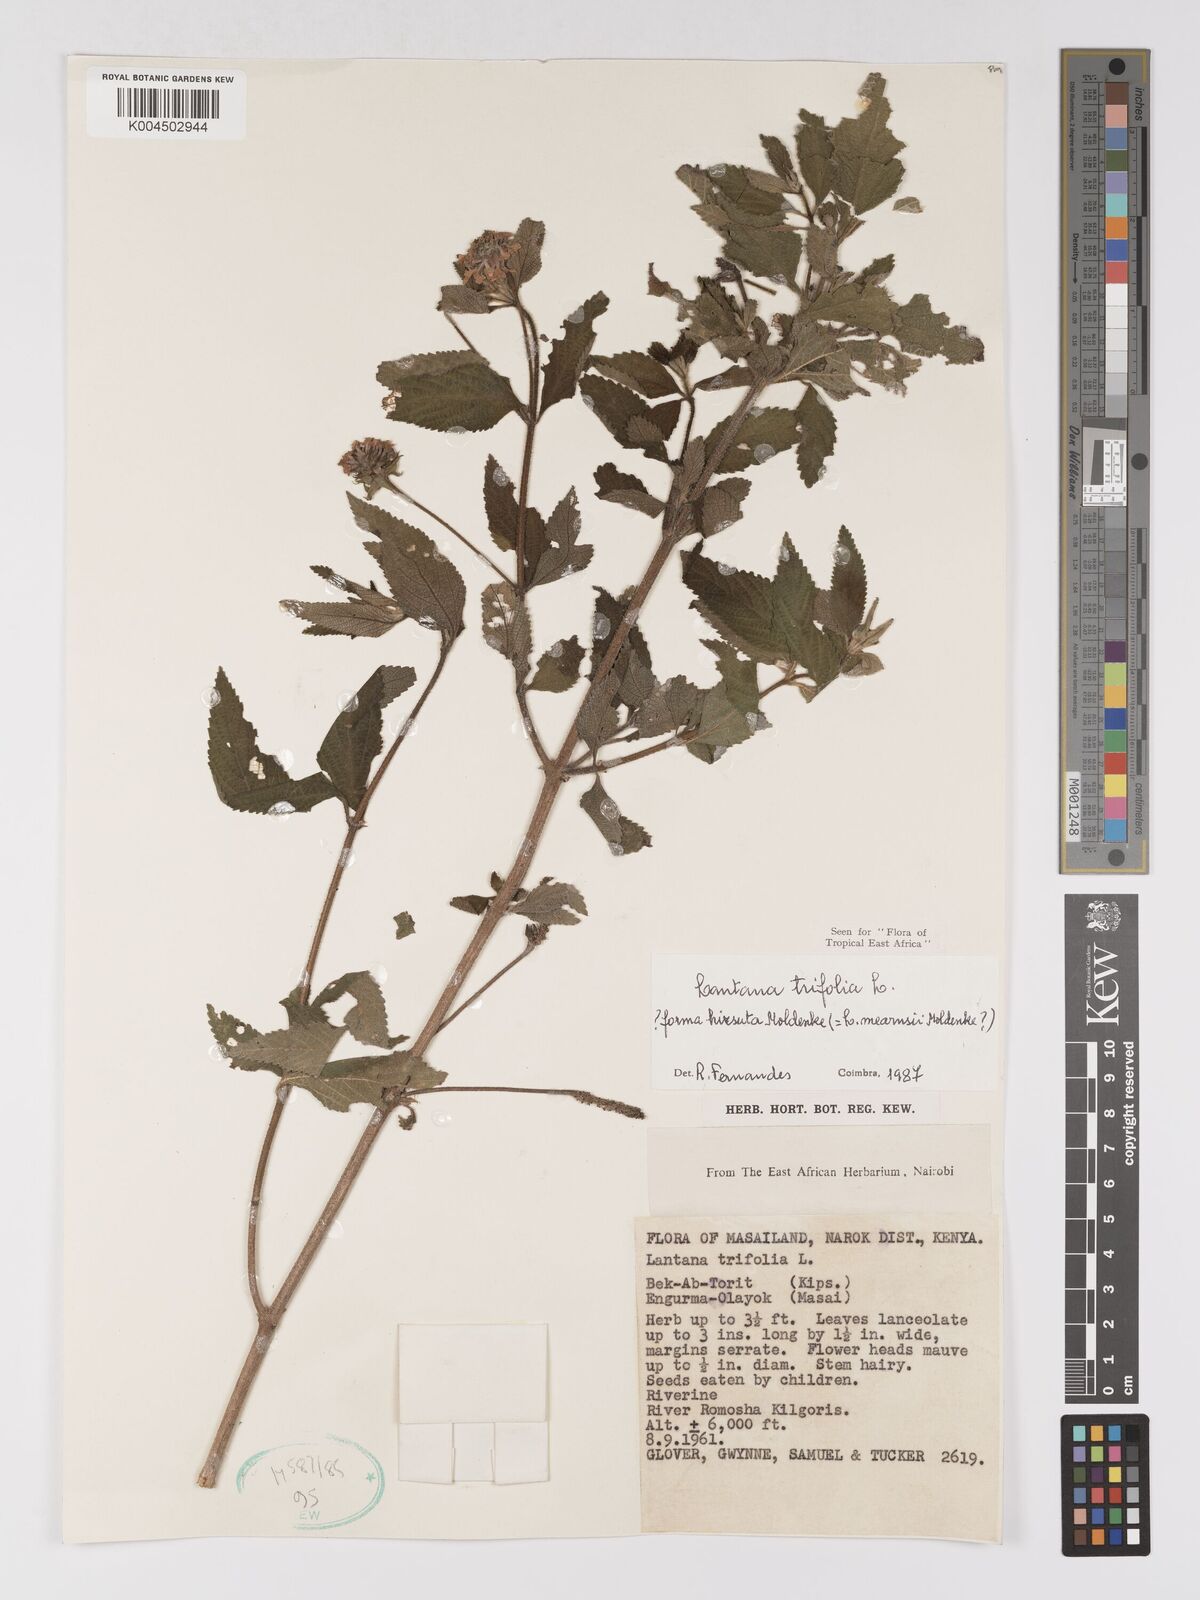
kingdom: Plantae
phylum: Tracheophyta
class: Magnoliopsida
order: Lamiales
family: Verbenaceae
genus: Lantana
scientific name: Lantana trifolia
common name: Sweet-sage
